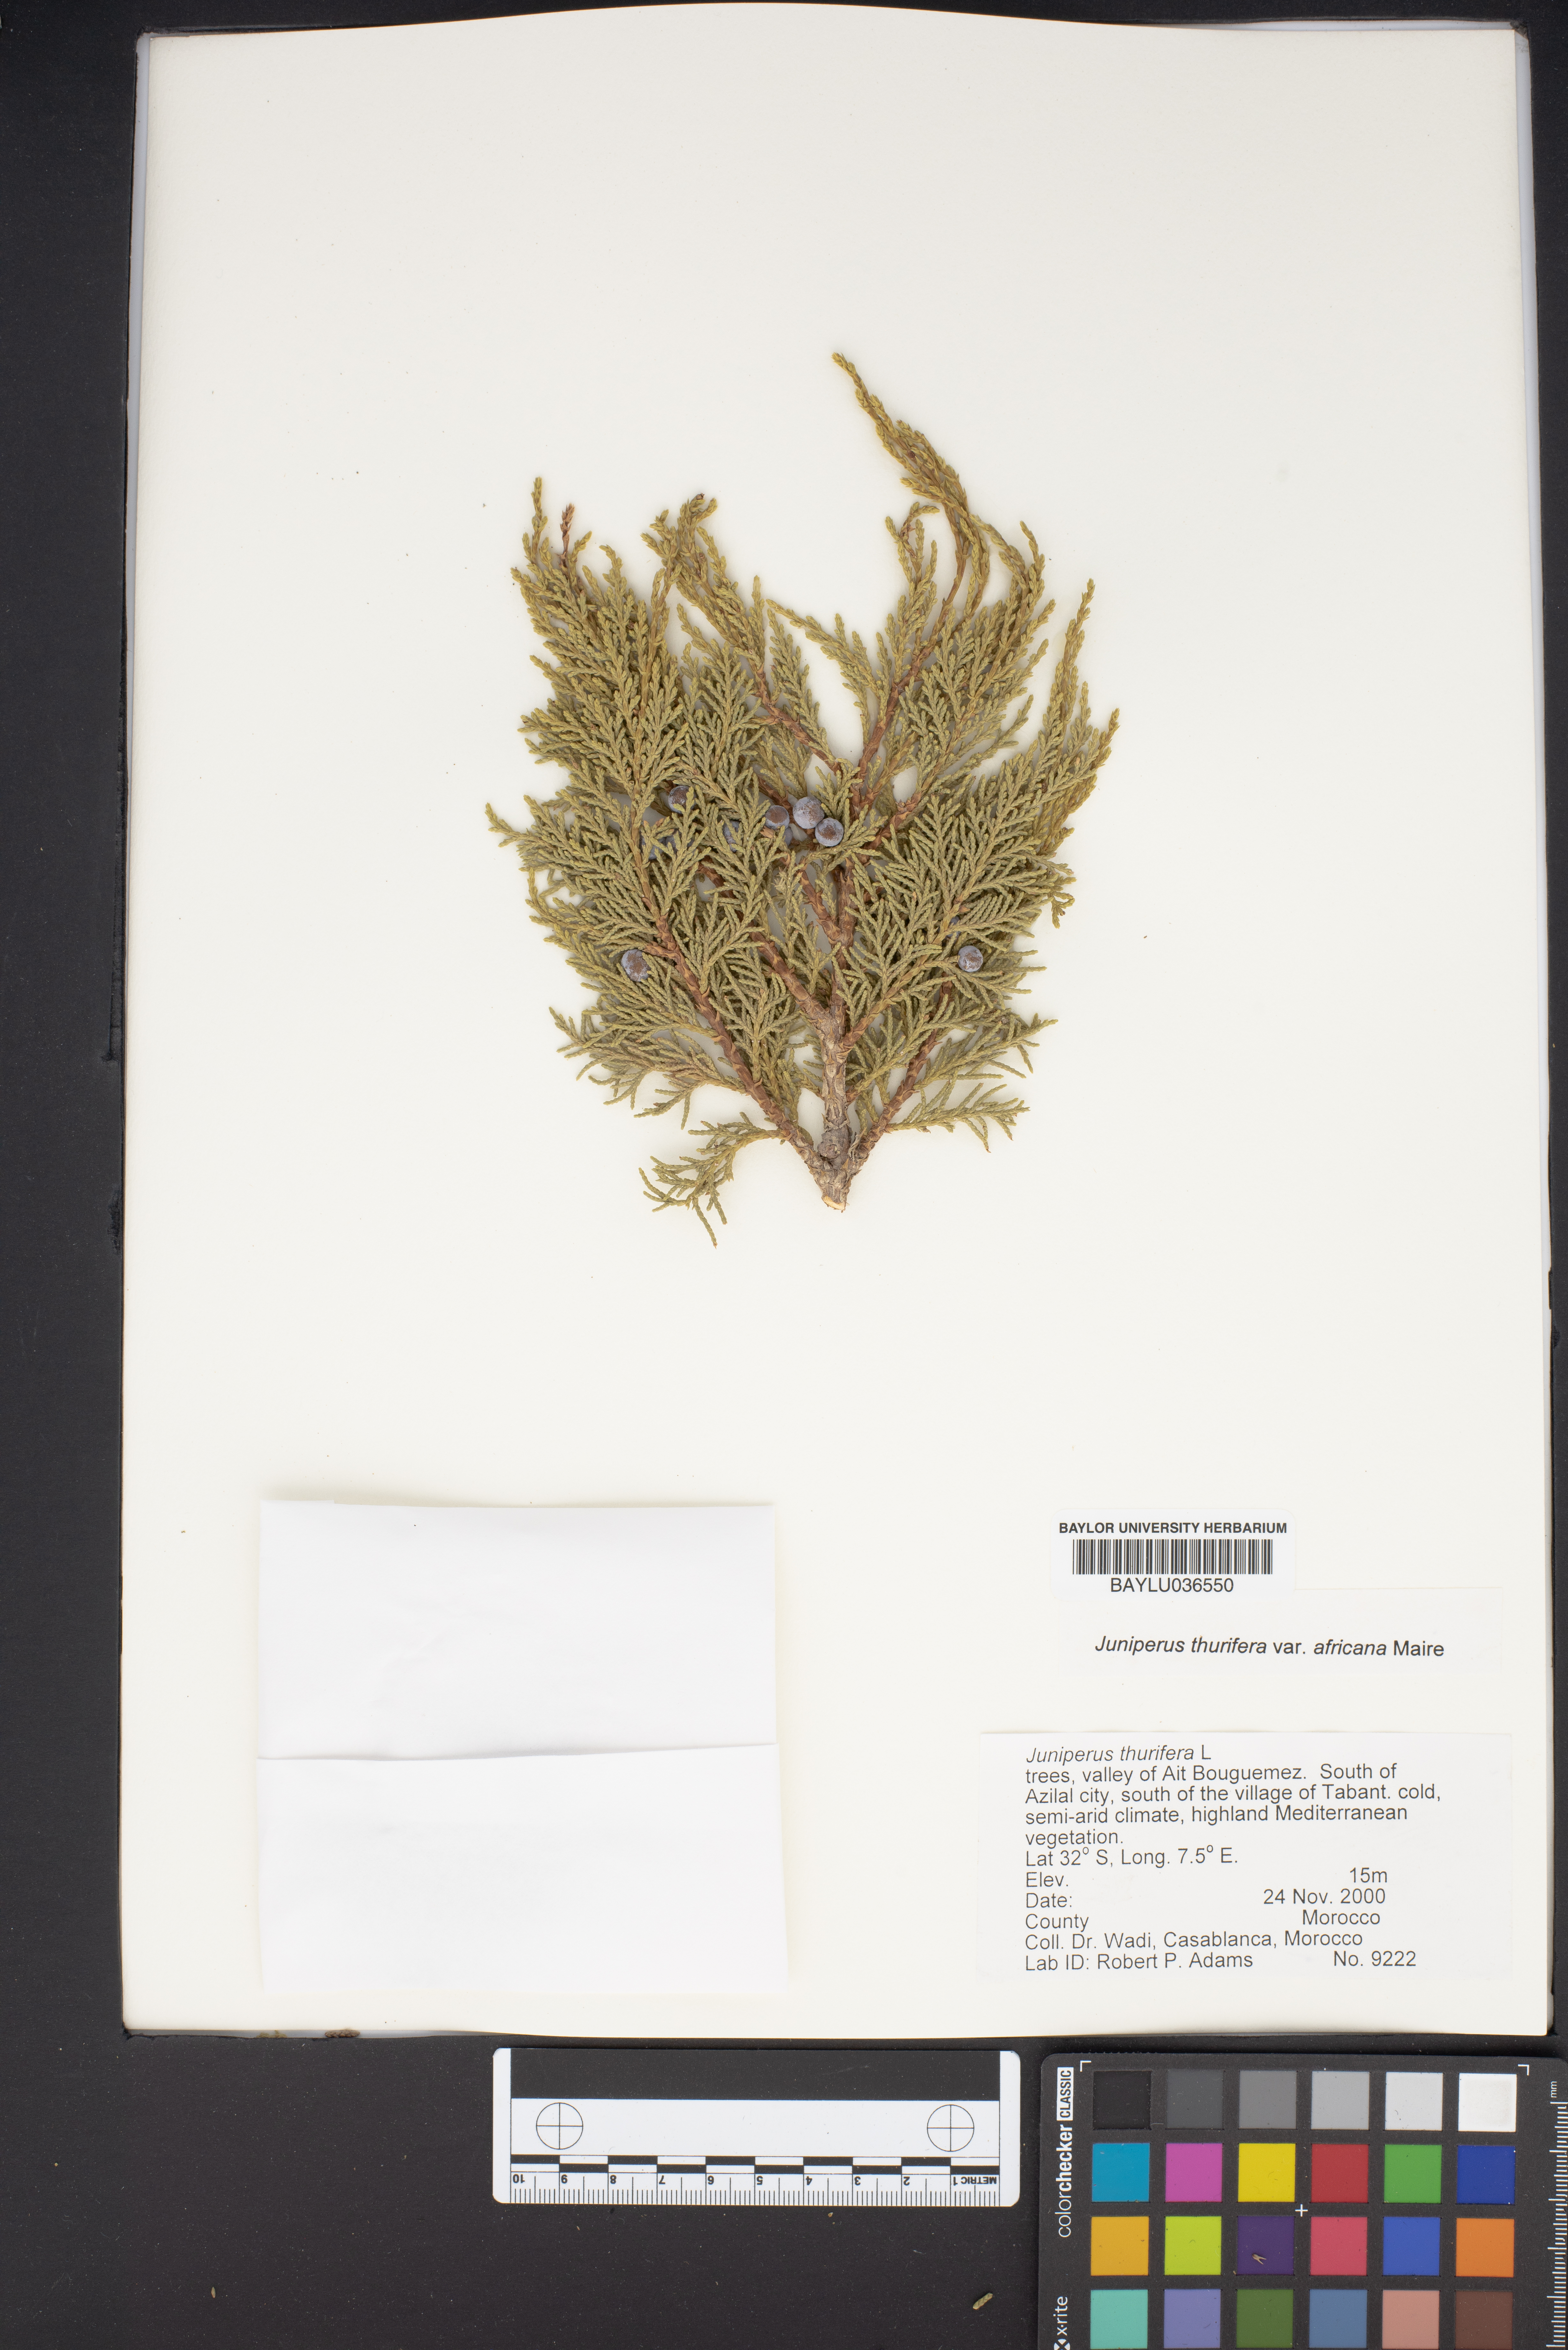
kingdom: Plantae
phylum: Tracheophyta
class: Pinopsida
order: Pinales
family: Cupressaceae
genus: Juniperus
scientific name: Juniperus thurifera
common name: Incense juniper
